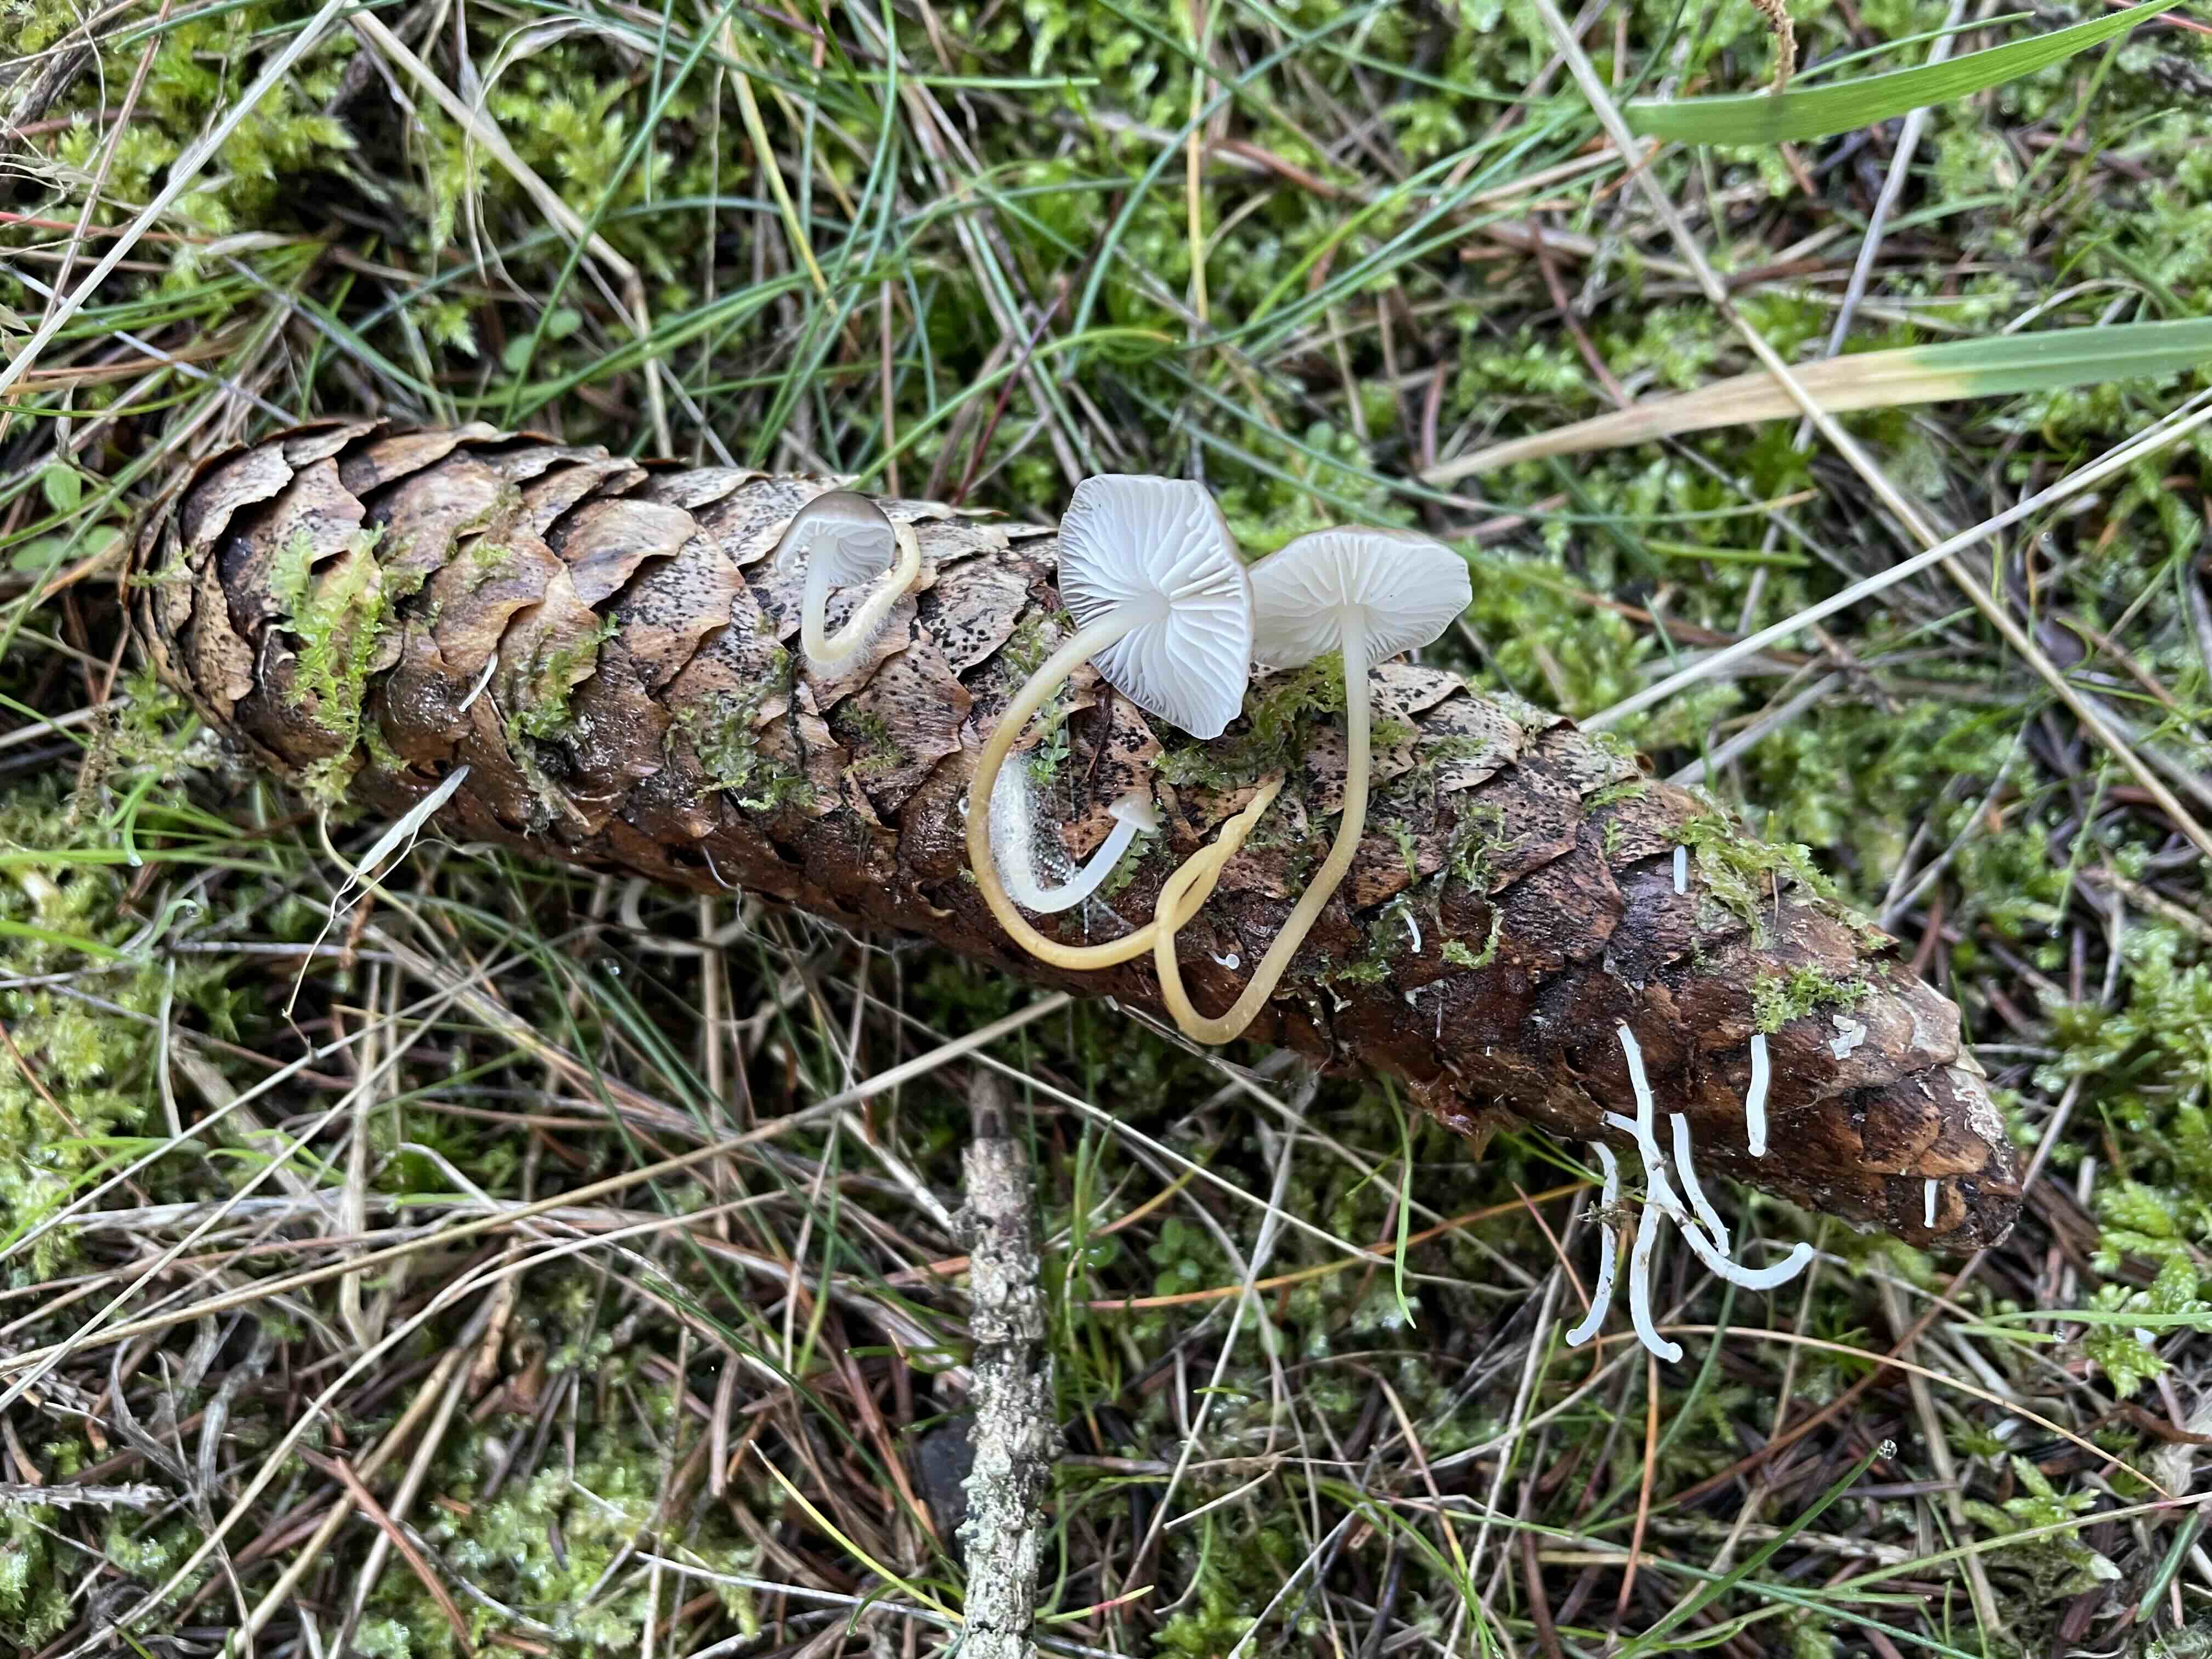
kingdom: Fungi
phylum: Basidiomycota
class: Agaricomycetes
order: Agaricales
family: Physalacriaceae
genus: Strobilurus
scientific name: Strobilurus esculentus
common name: gran-koglehat
